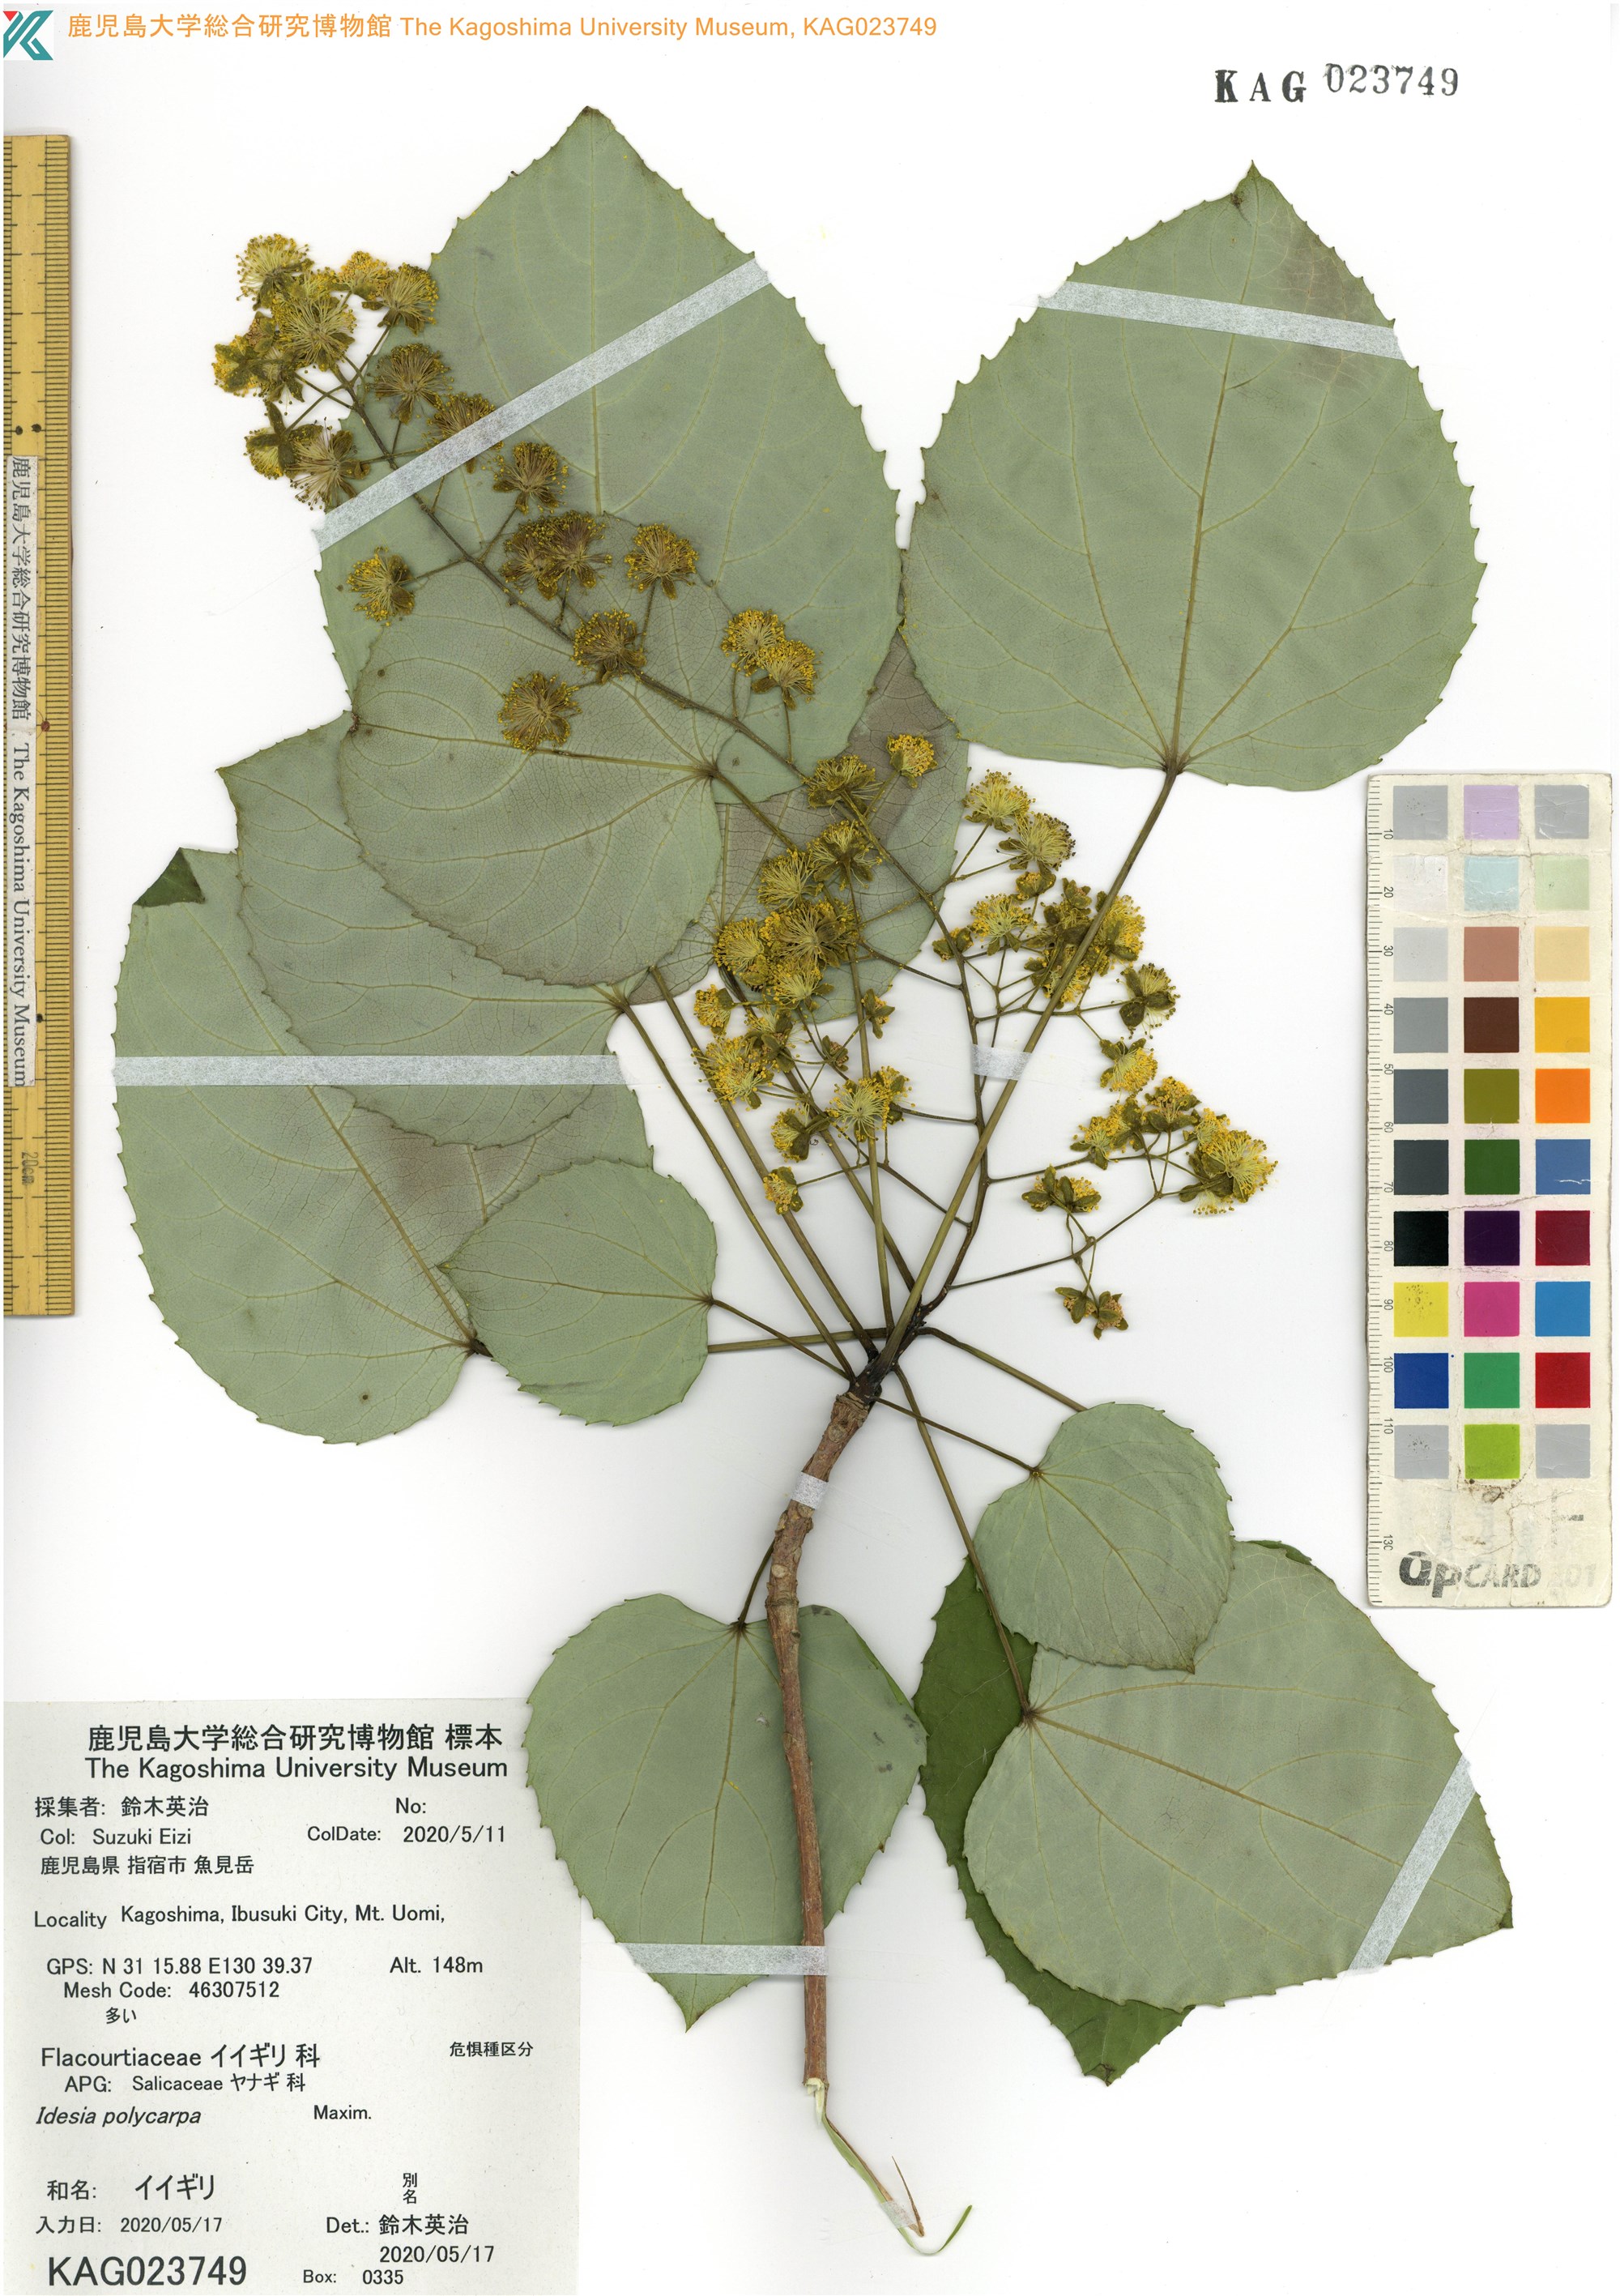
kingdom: Plantae
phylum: Tracheophyta
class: Magnoliopsida
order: Malpighiales
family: Salicaceae
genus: Idesia
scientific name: Idesia polycarpa
